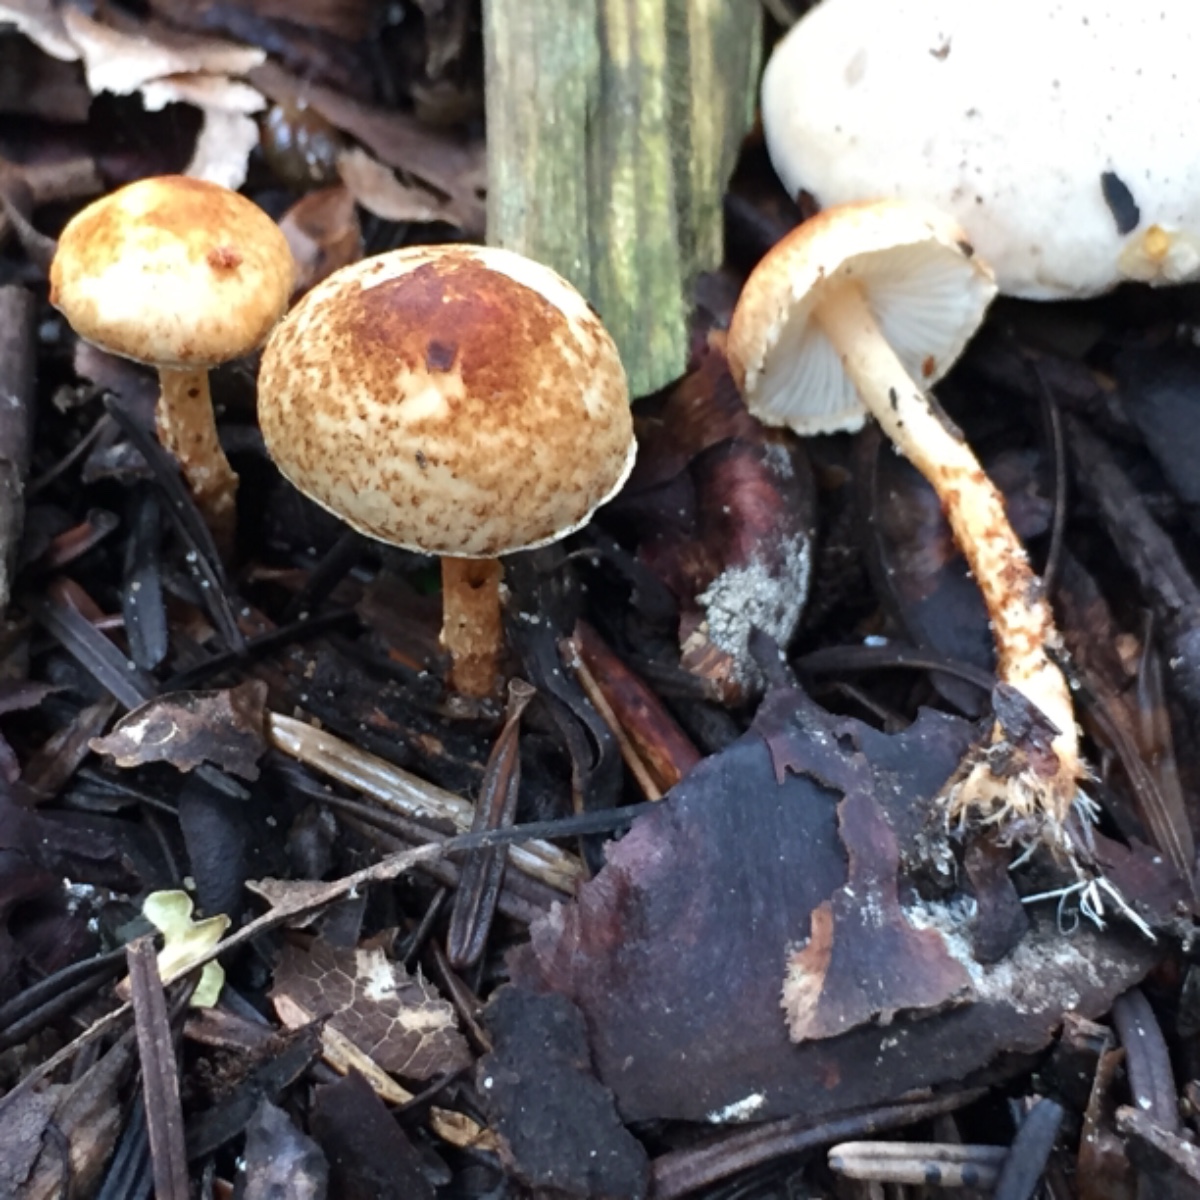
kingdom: Fungi
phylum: Basidiomycota
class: Agaricomycetes
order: Agaricales
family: Agaricaceae
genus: Lepiota
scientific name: Lepiota castanea
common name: kastaniebrun parasolhat
